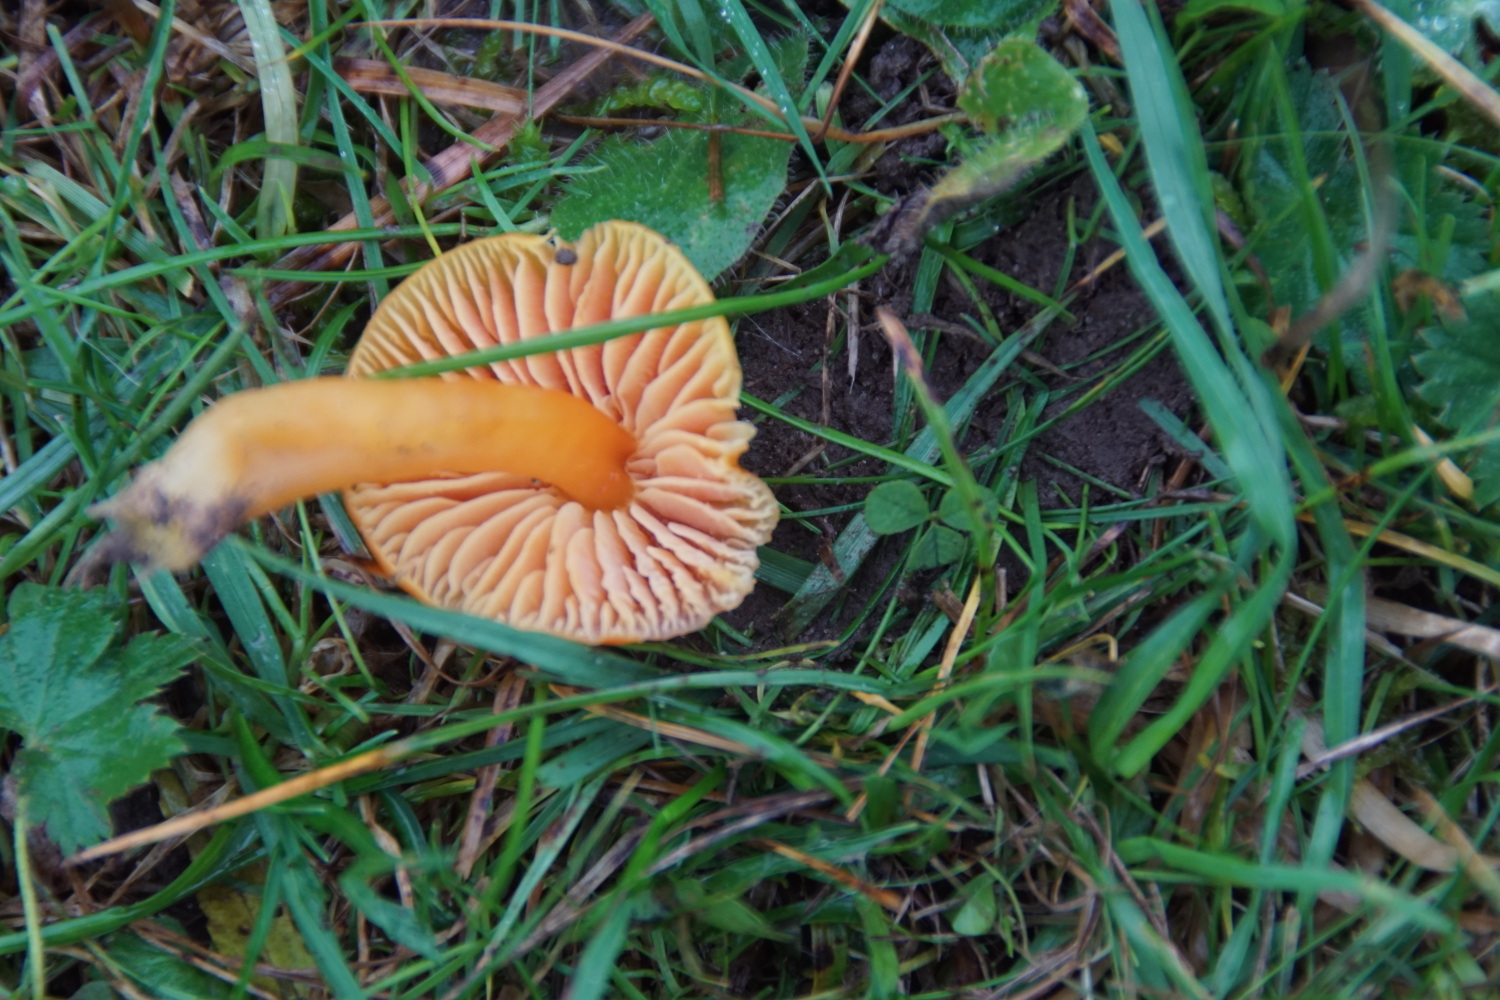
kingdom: Fungi
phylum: Basidiomycota
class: Agaricomycetes
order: Agaricales
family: Hygrophoraceae
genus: Hygrocybe
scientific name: Hygrocybe reidii
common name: honning-vokshat
